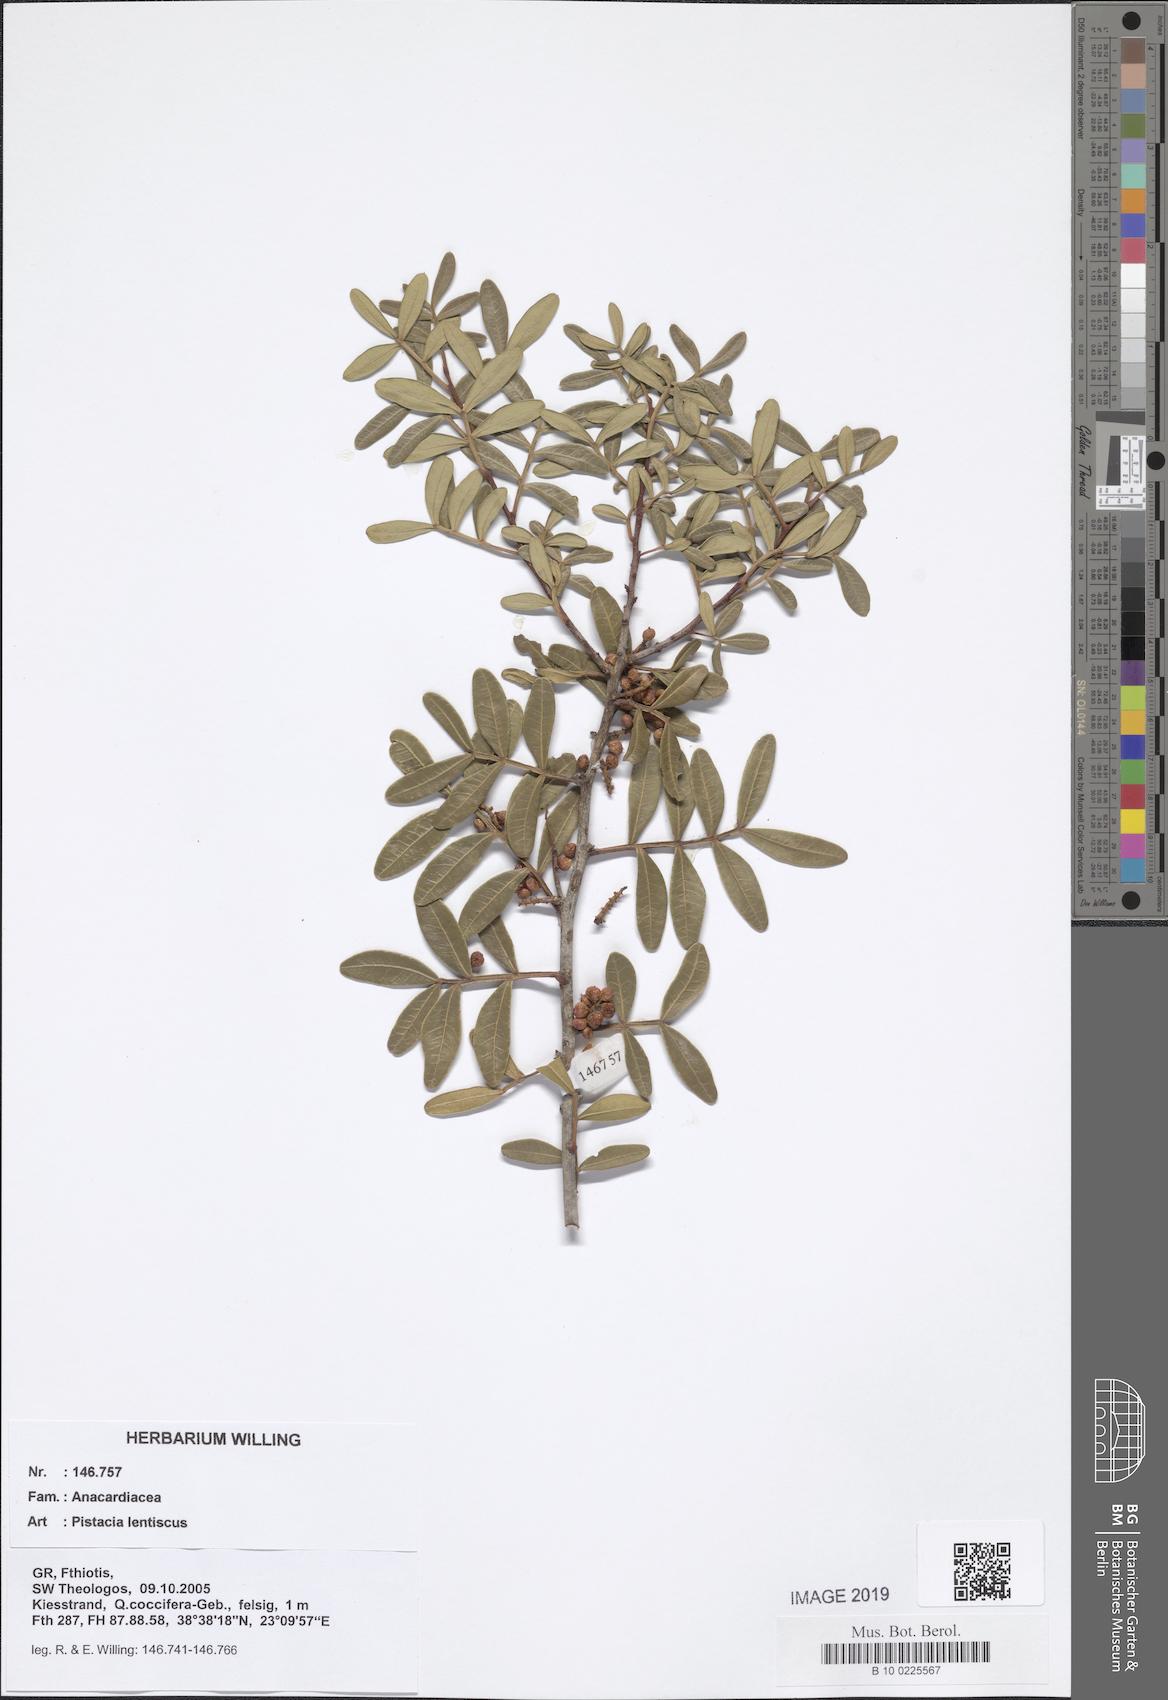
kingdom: Plantae
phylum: Tracheophyta
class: Magnoliopsida
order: Sapindales
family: Anacardiaceae
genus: Pistacia
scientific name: Pistacia lentiscus
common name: Lentisk
